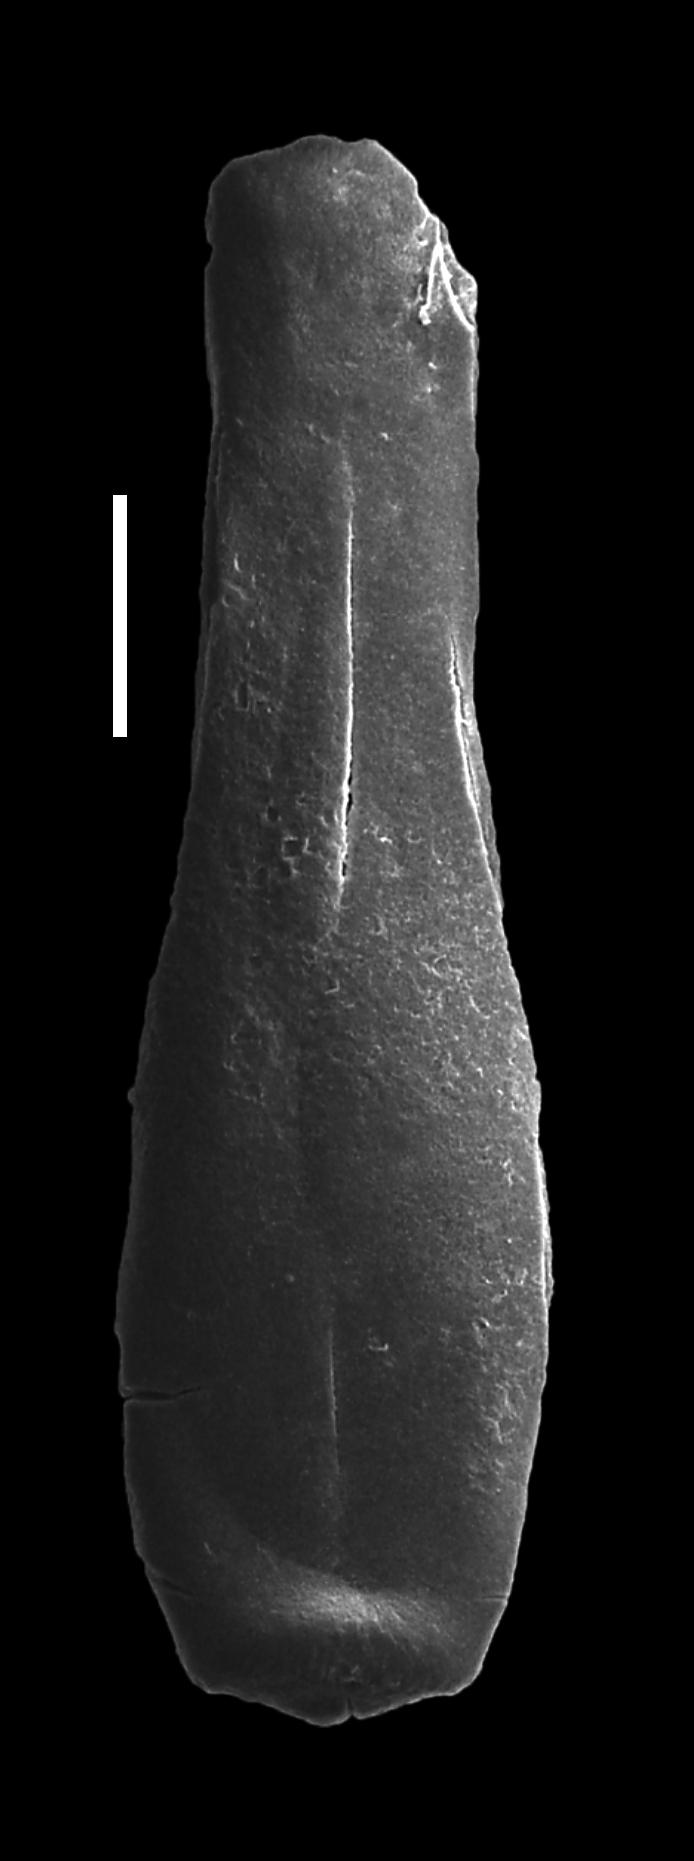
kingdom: Protozoa
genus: Belonechitina
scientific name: Belonechitina
